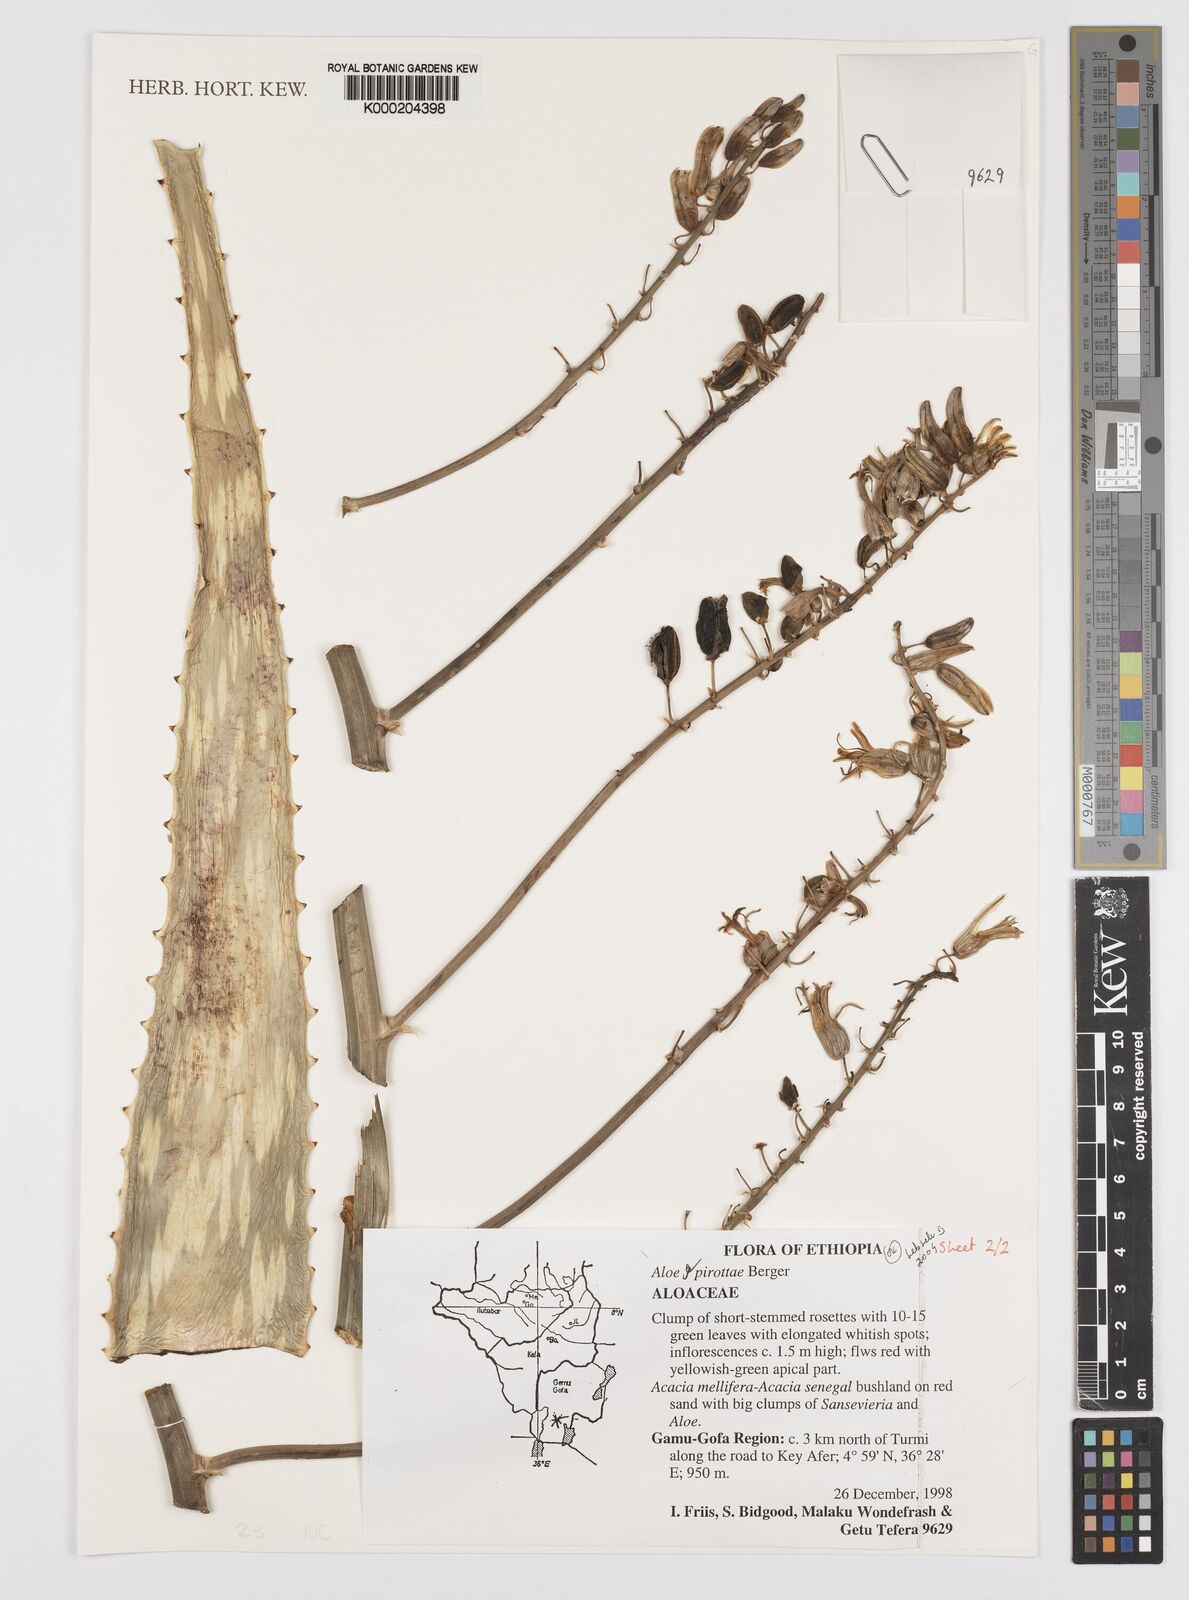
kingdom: Plantae
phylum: Tracheophyta
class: Liliopsida
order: Asparagales
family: Asphodelaceae
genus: Aloe
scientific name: Aloe pirottae
